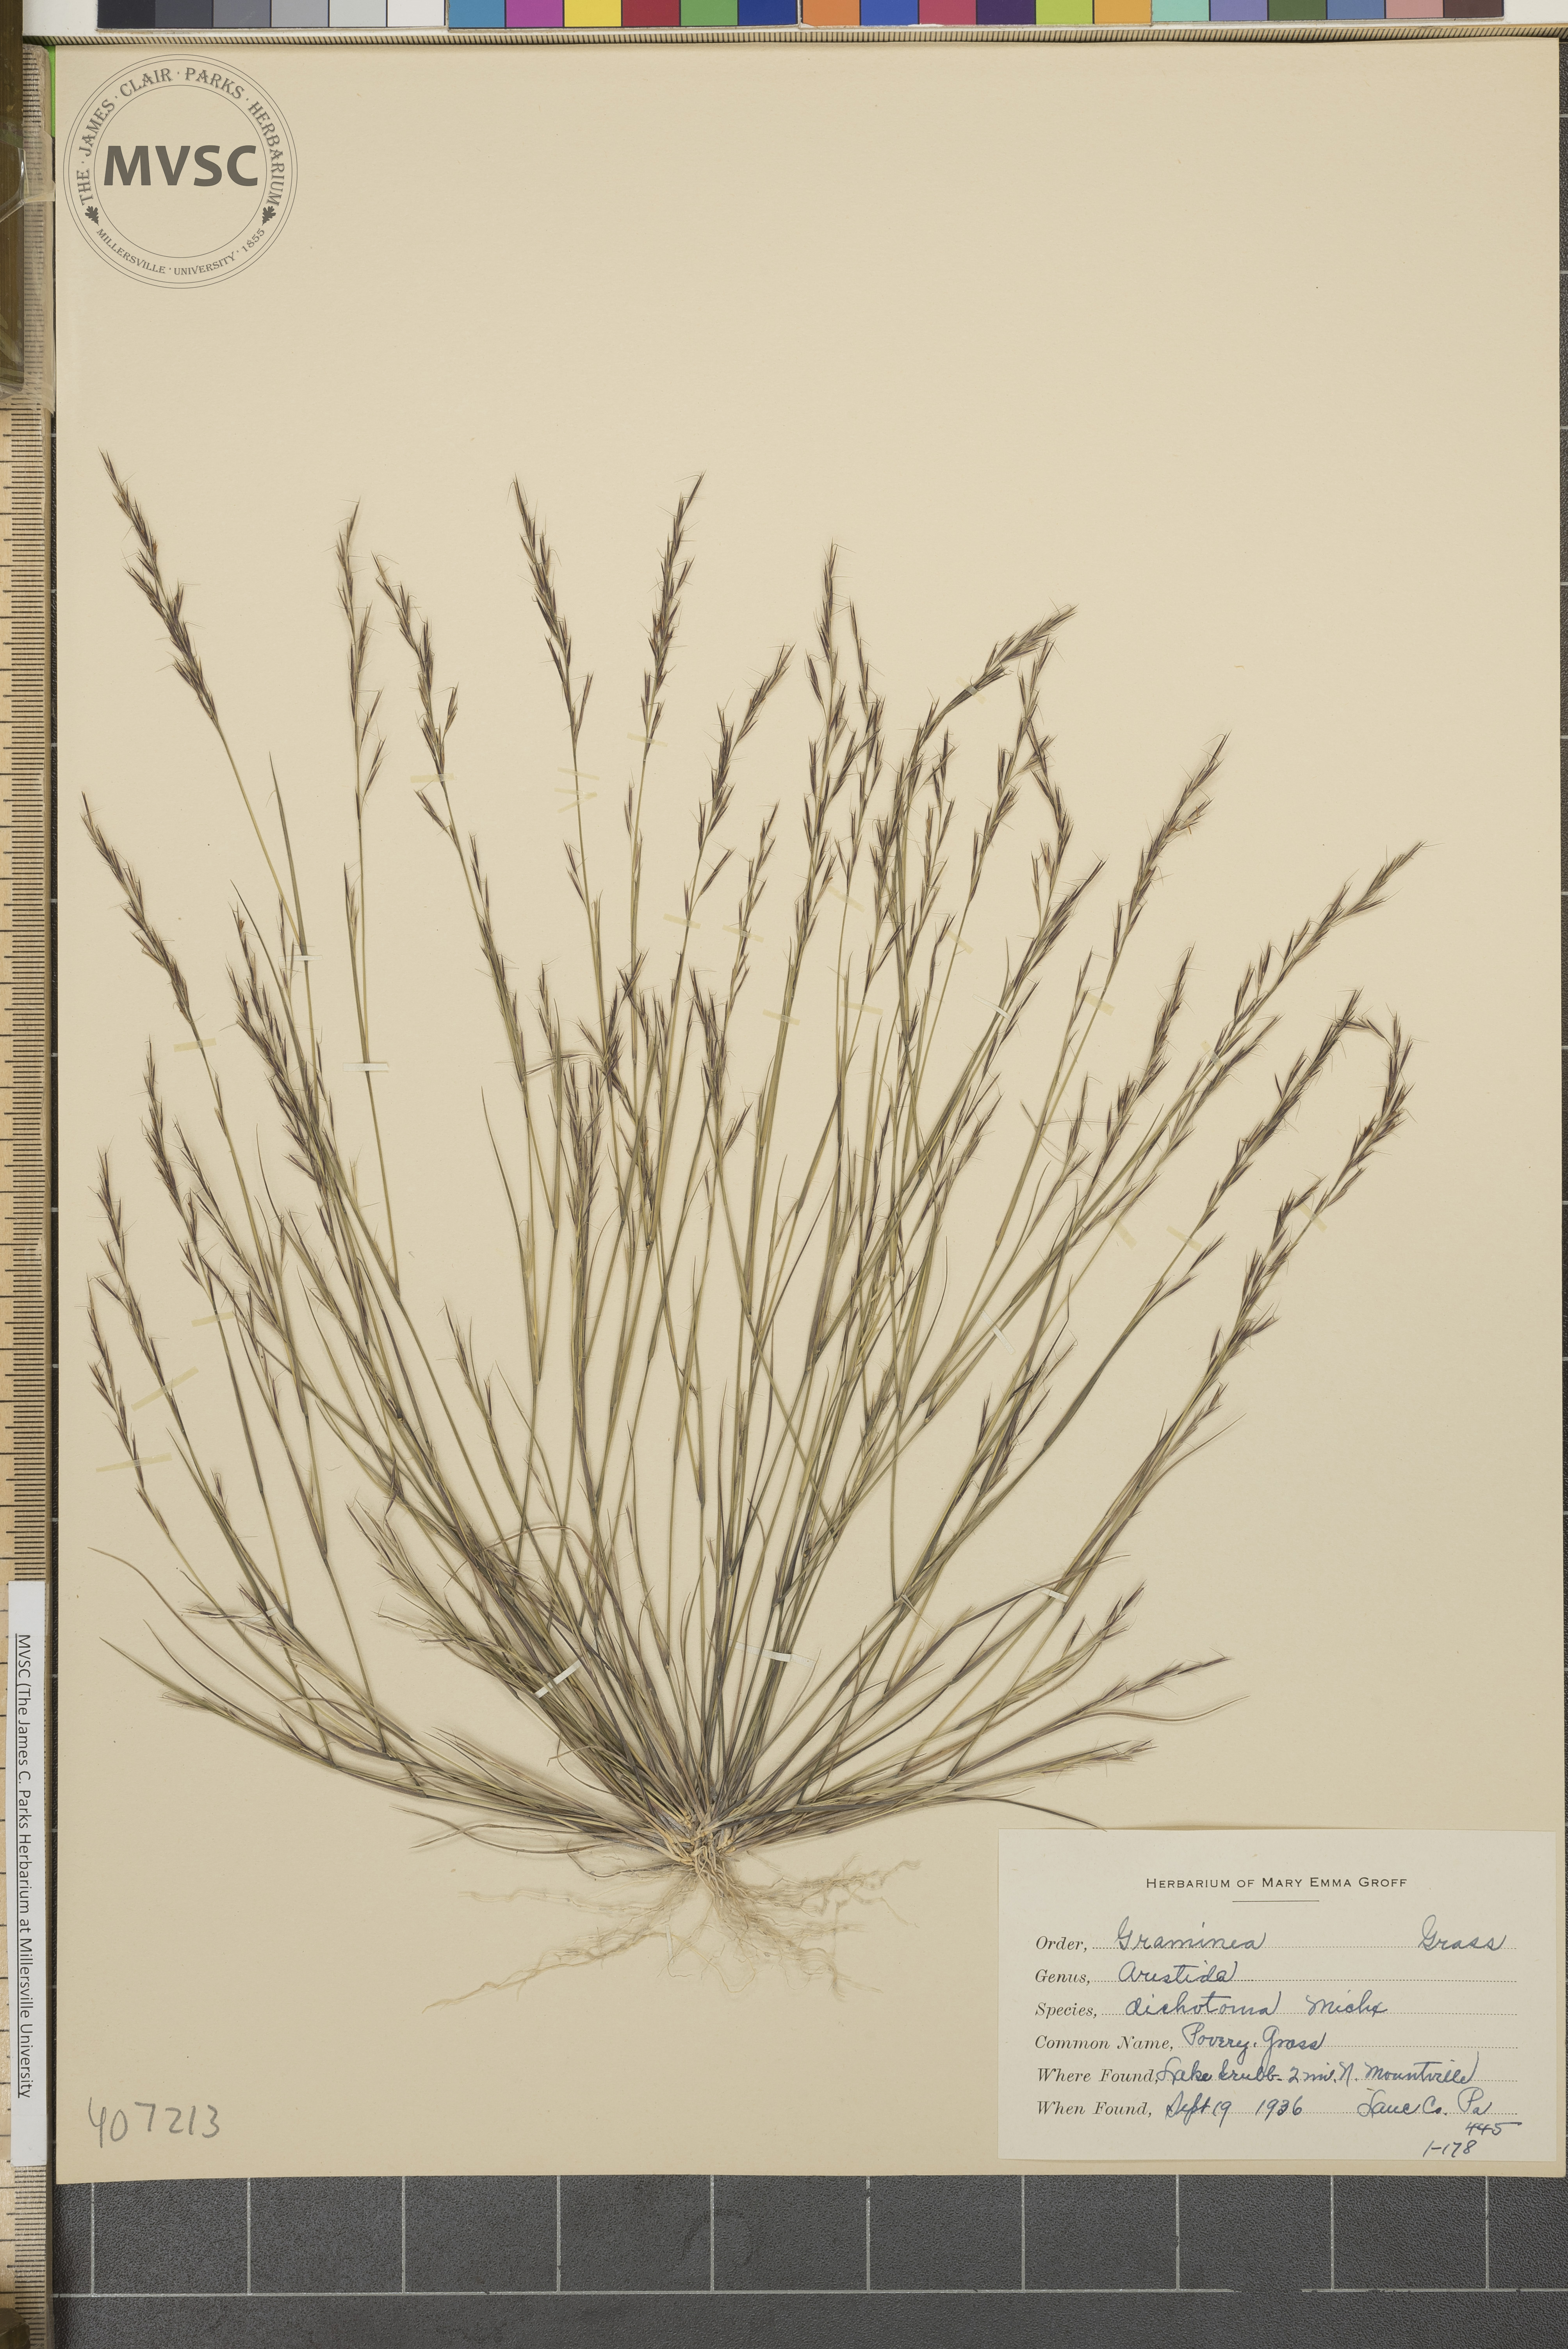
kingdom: Plantae
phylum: Tracheophyta
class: Liliopsida
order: Poales
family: Poaceae
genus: Aristida
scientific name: Aristida dichotoma
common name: Churchmouse three-awn
